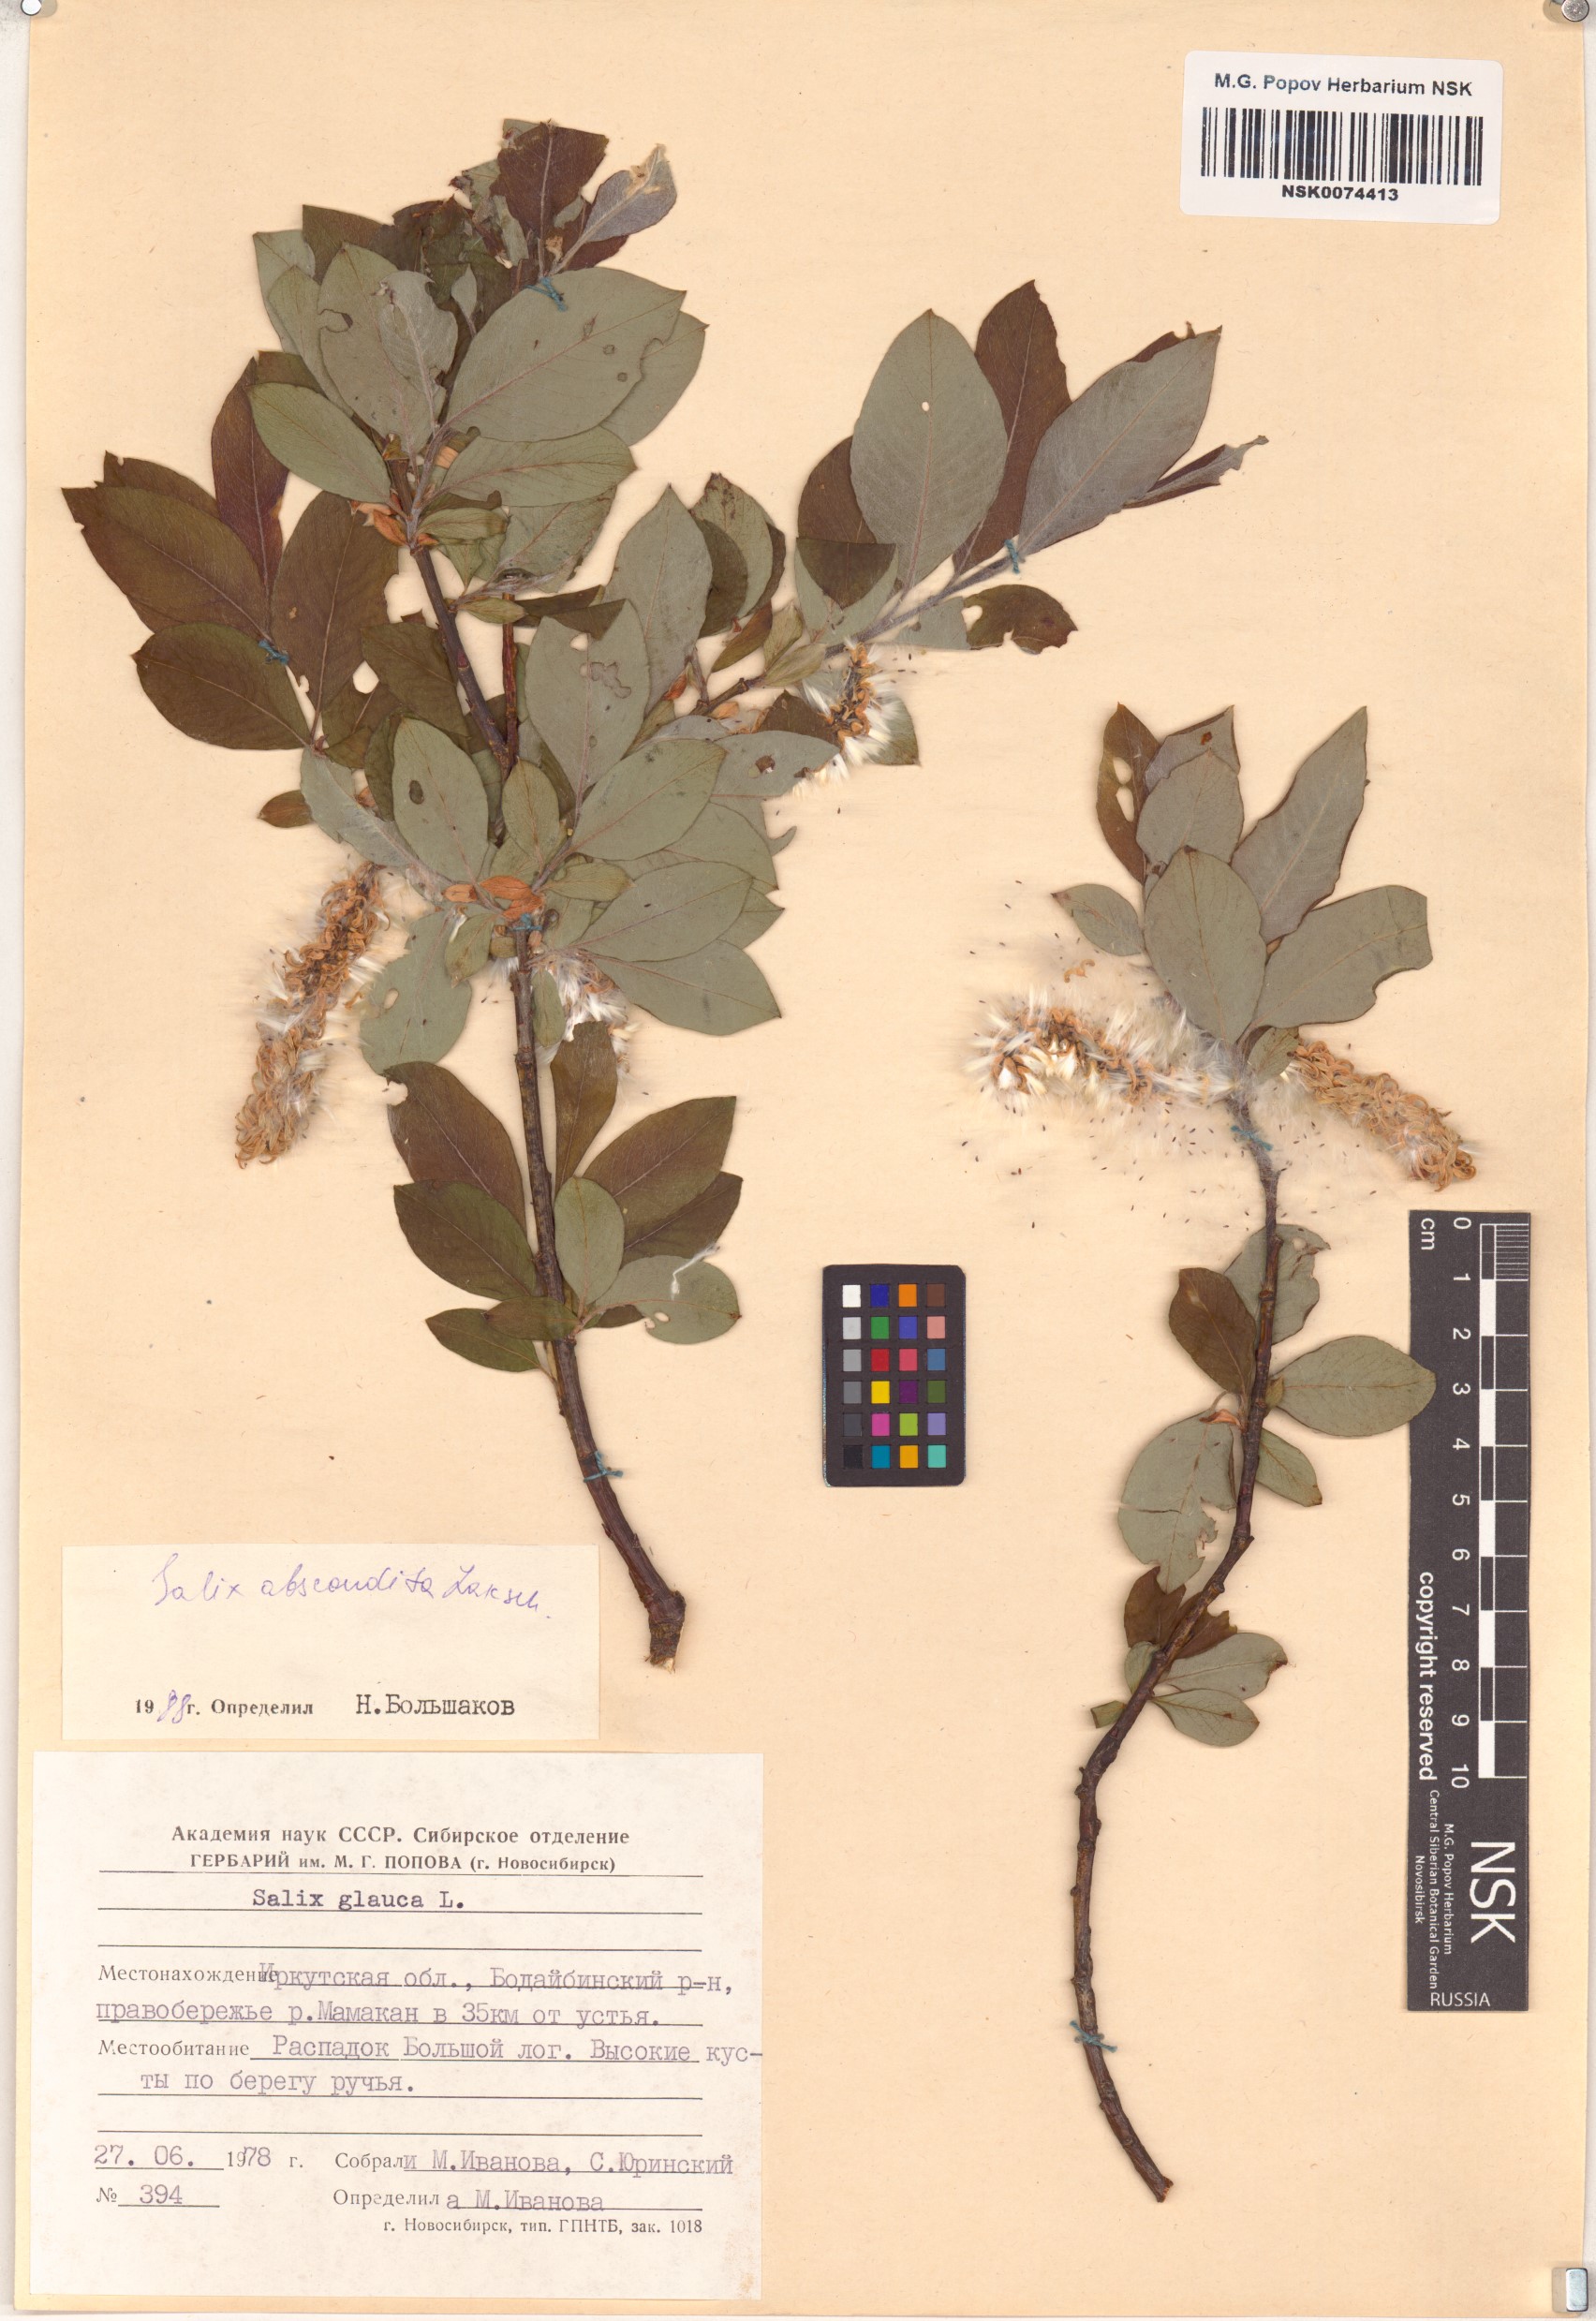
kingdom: Plantae
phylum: Tracheophyta
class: Magnoliopsida
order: Malpighiales
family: Salicaceae
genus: Salix
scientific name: Salix abscondita
